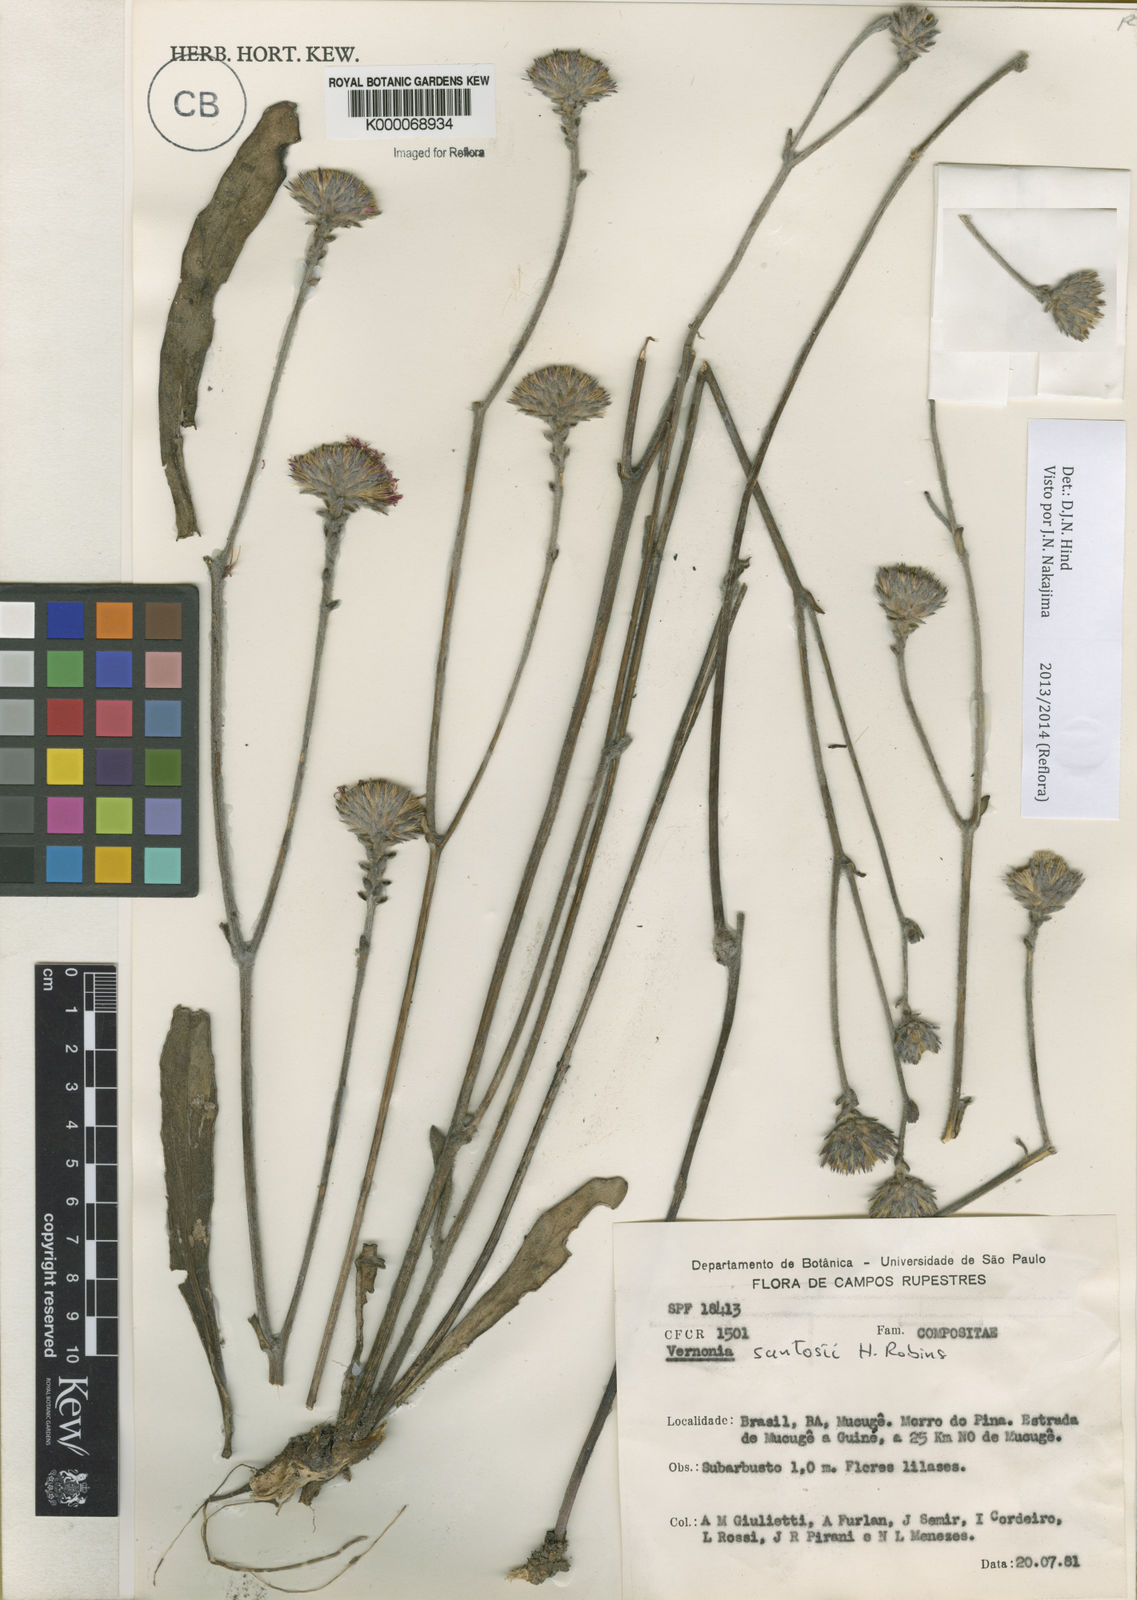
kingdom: Plantae
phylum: Tracheophyta
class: Magnoliopsida
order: Asterales
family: Asteraceae
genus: Lessingianthus
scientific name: Lessingianthus santosii
